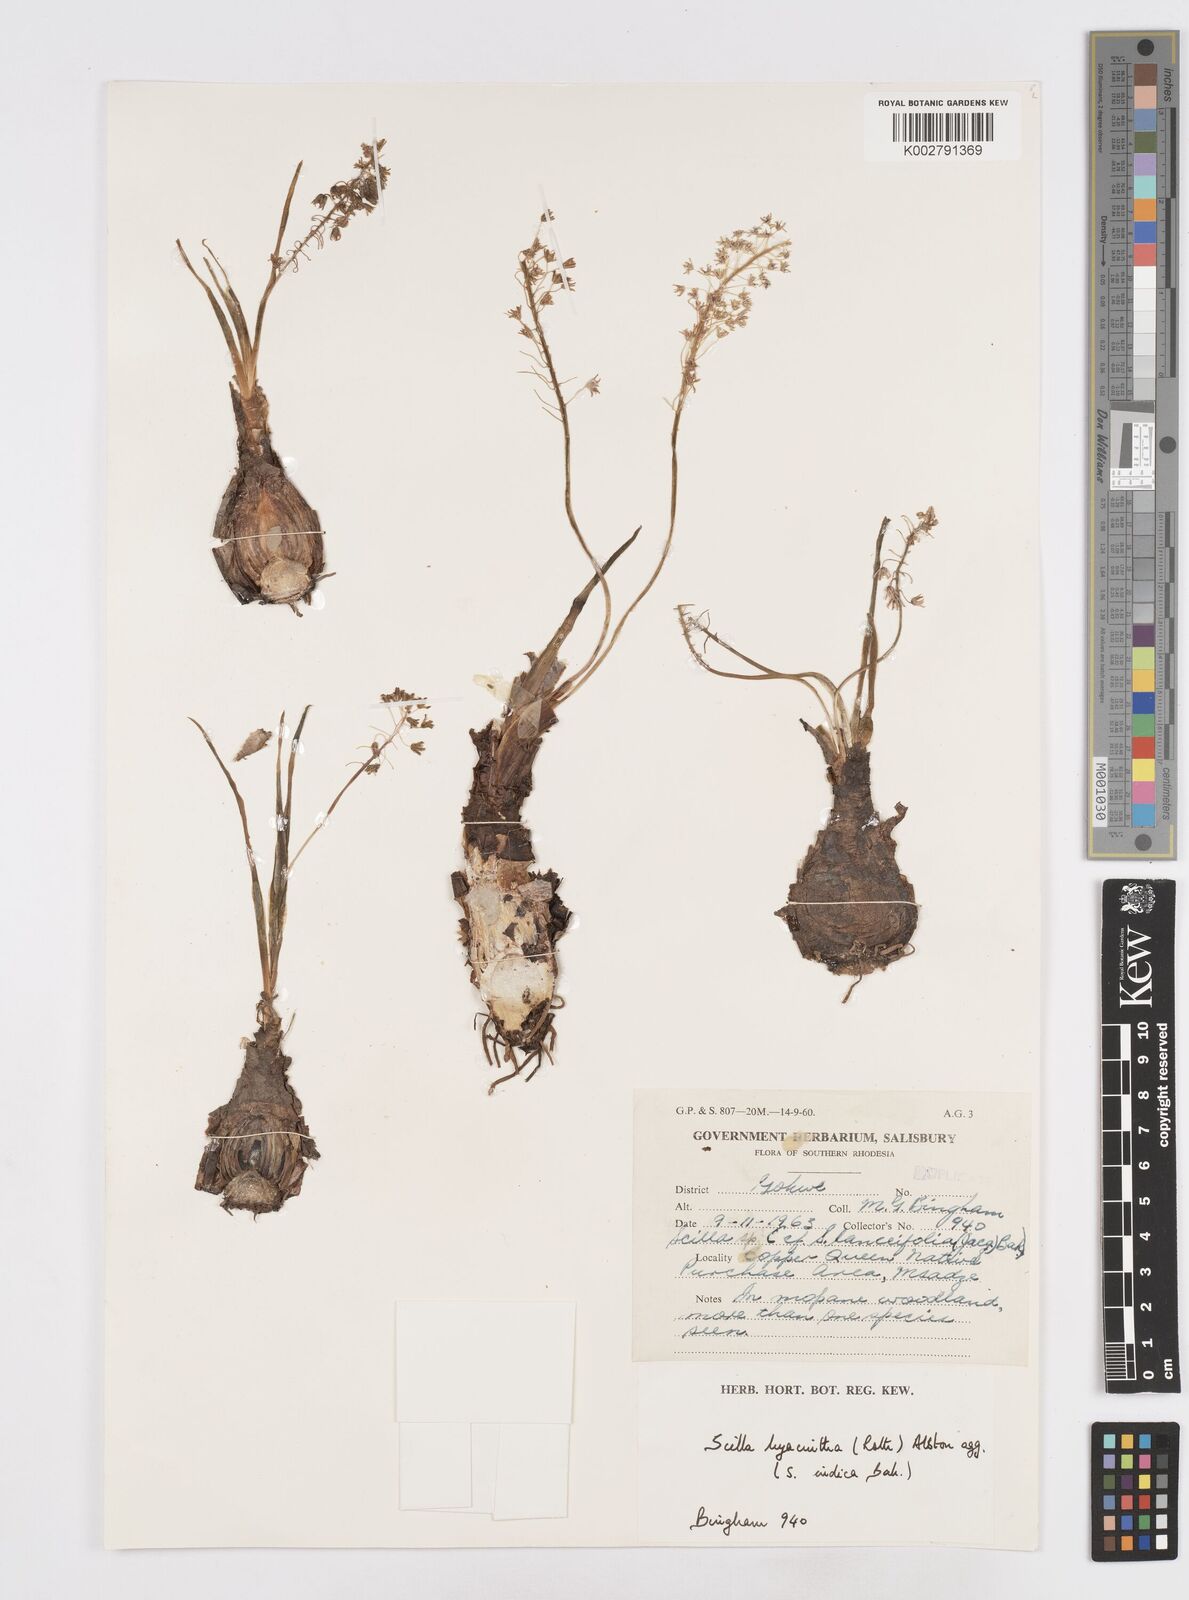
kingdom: Plantae
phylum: Tracheophyta
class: Liliopsida
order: Asparagales
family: Asparagaceae
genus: Ledebouria
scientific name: Ledebouria revoluta
